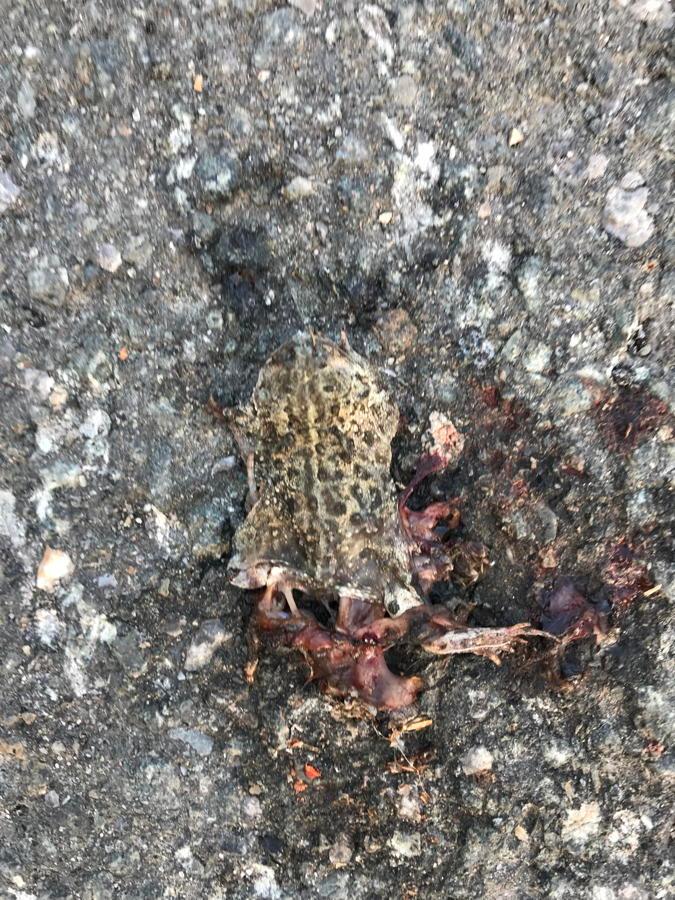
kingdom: Animalia
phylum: Chordata
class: Amphibia
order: Anura
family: Bufonidae
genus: Epidalea
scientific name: Epidalea calamita
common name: Natterjack toad
